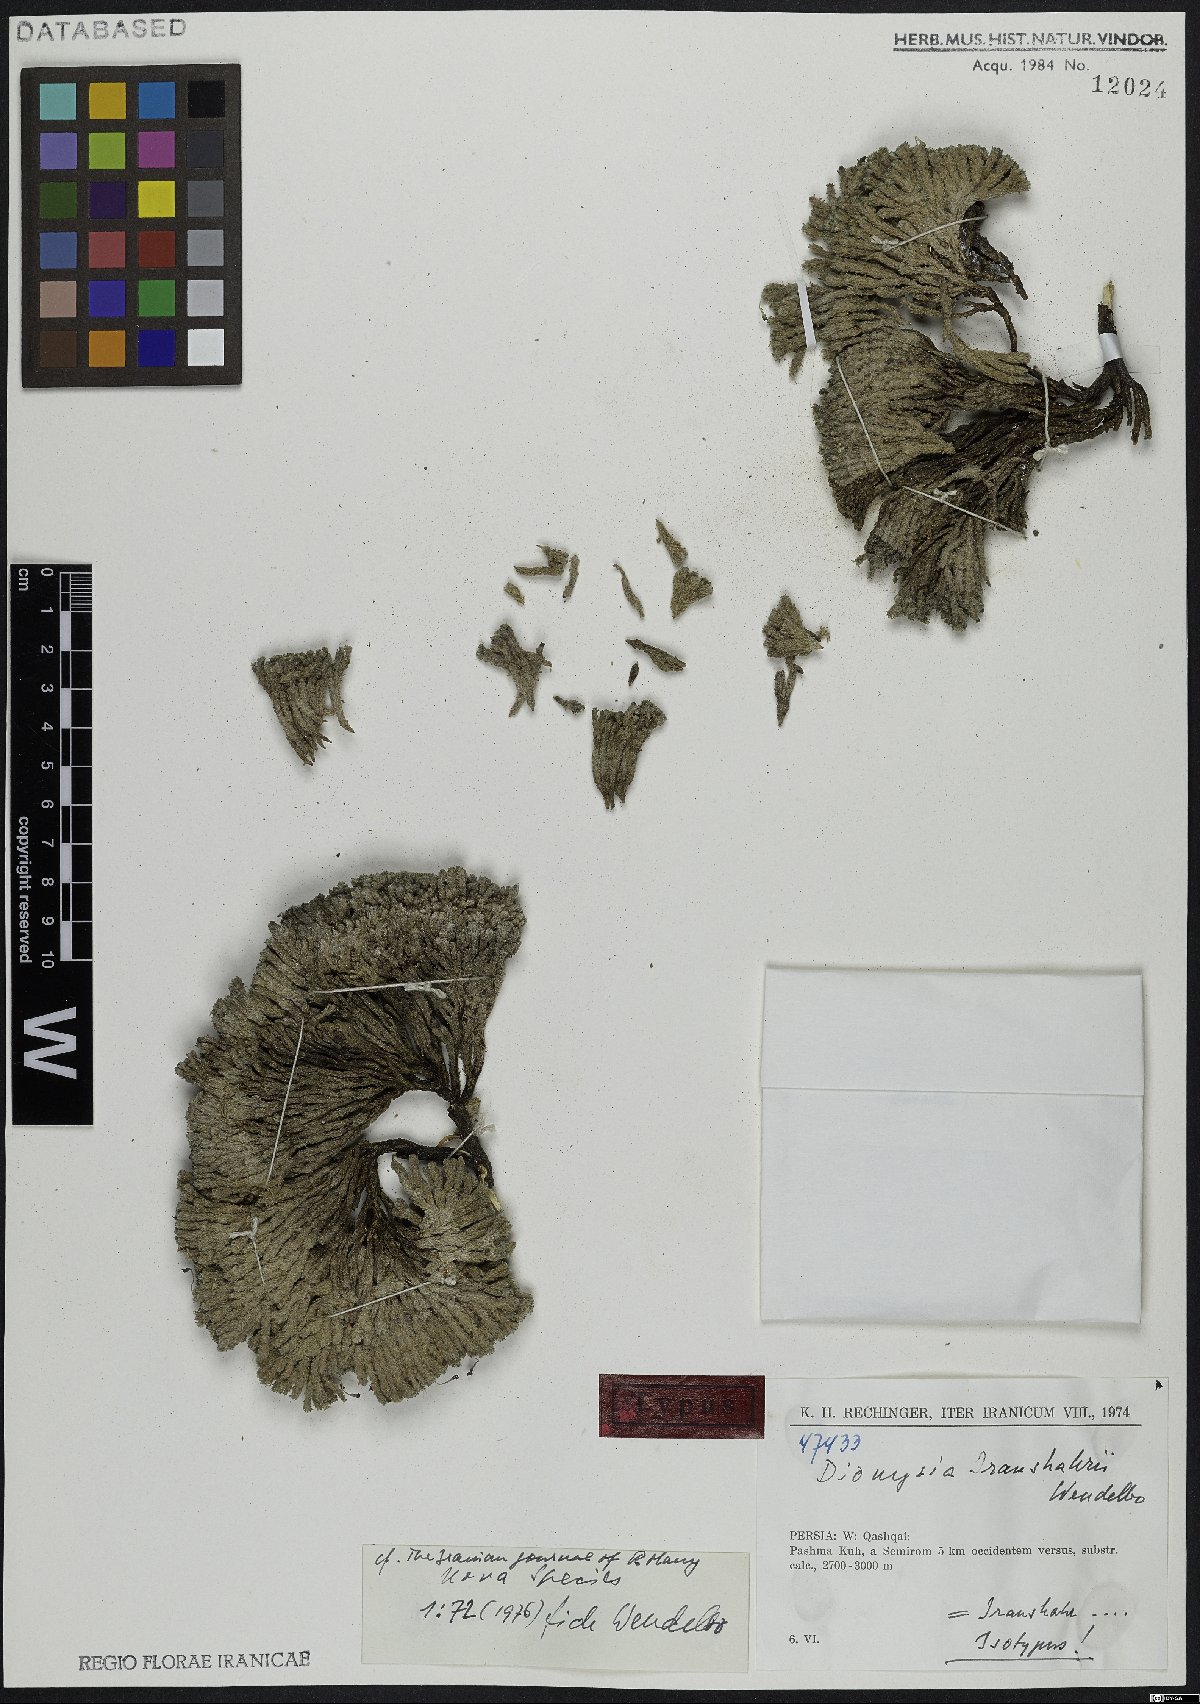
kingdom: Plantae
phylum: Tracheophyta
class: Magnoliopsida
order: Ericales
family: Primulaceae
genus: Dionysia
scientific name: Dionysia iranshahrii
